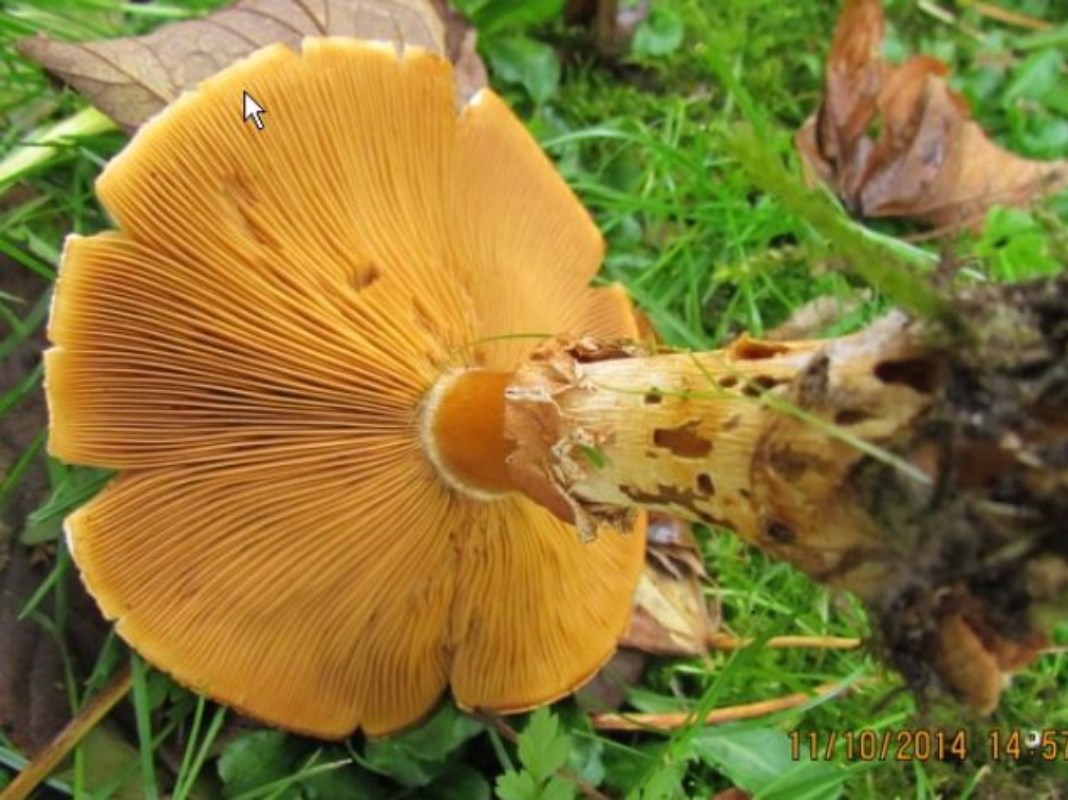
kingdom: Fungi
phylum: Basidiomycota
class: Agaricomycetes
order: Agaricales
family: Tricholomataceae
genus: Phaeolepiota
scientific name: Phaeolepiota aurea
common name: gyldenhat
